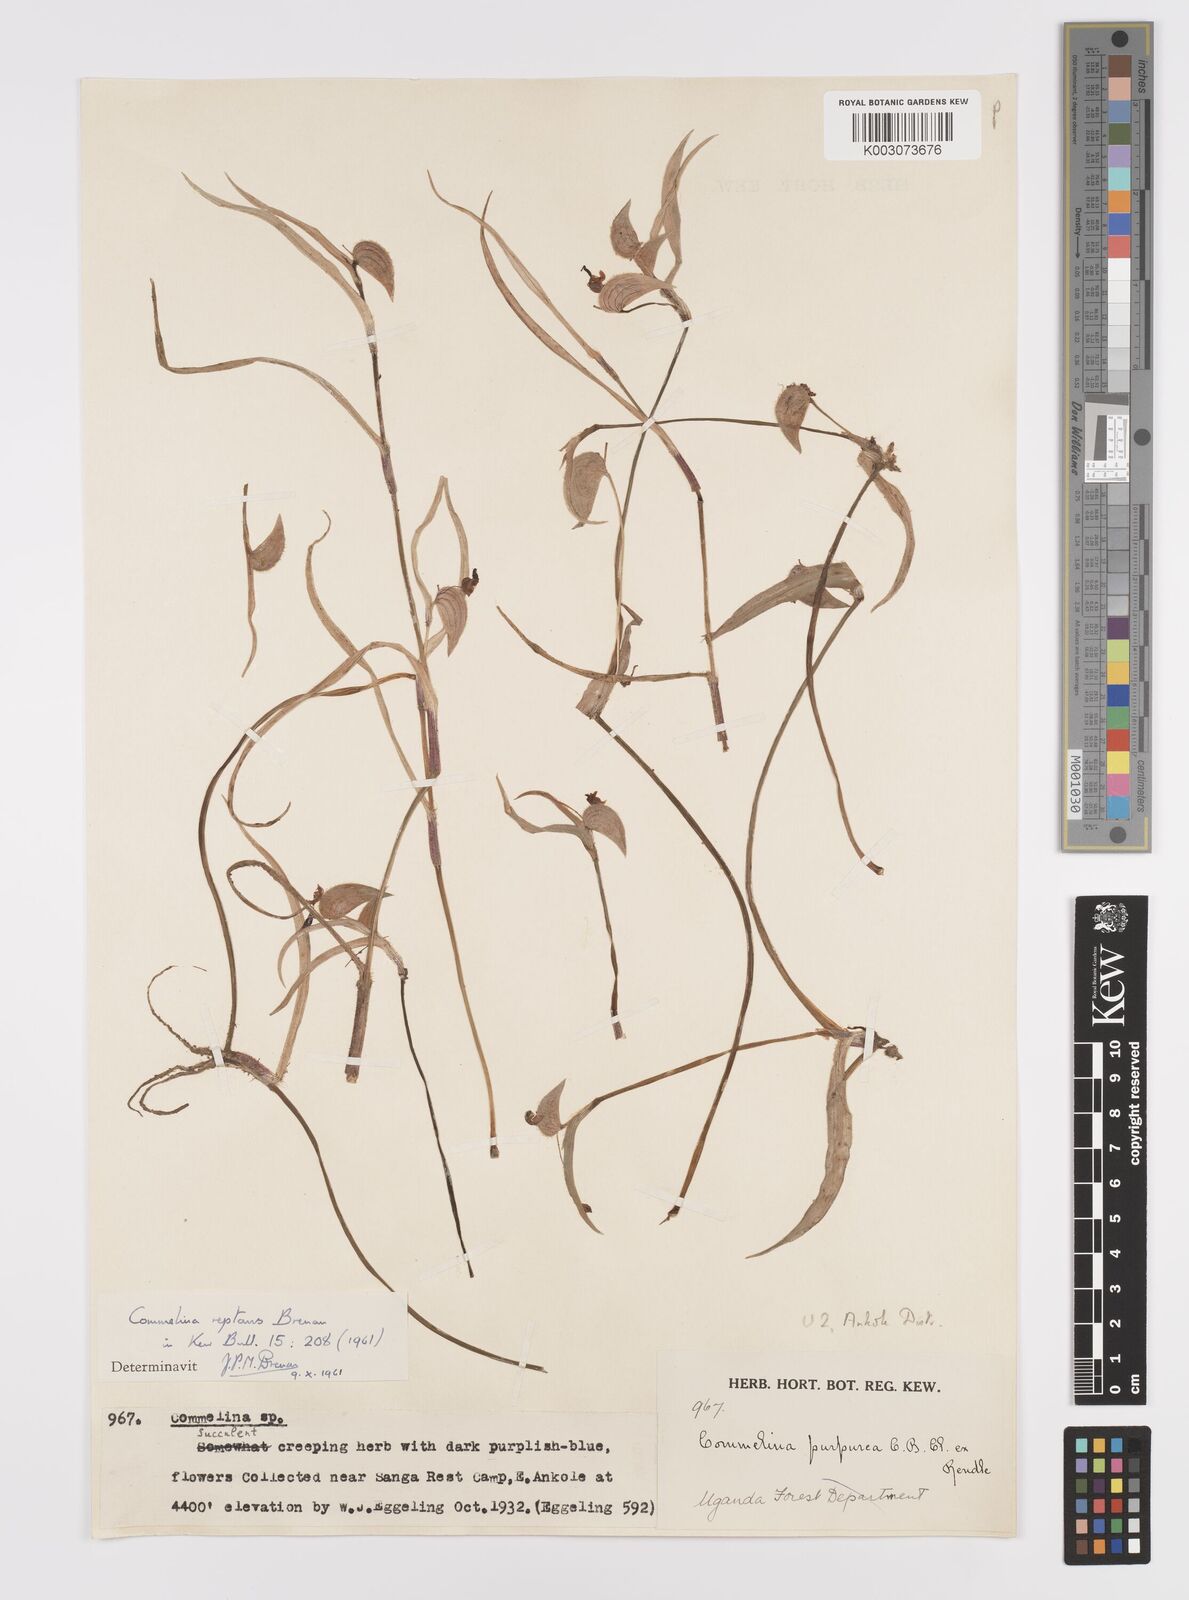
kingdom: Plantae
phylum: Tracheophyta
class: Liliopsida
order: Commelinales
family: Commelinaceae
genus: Commelina
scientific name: Commelina reptans
